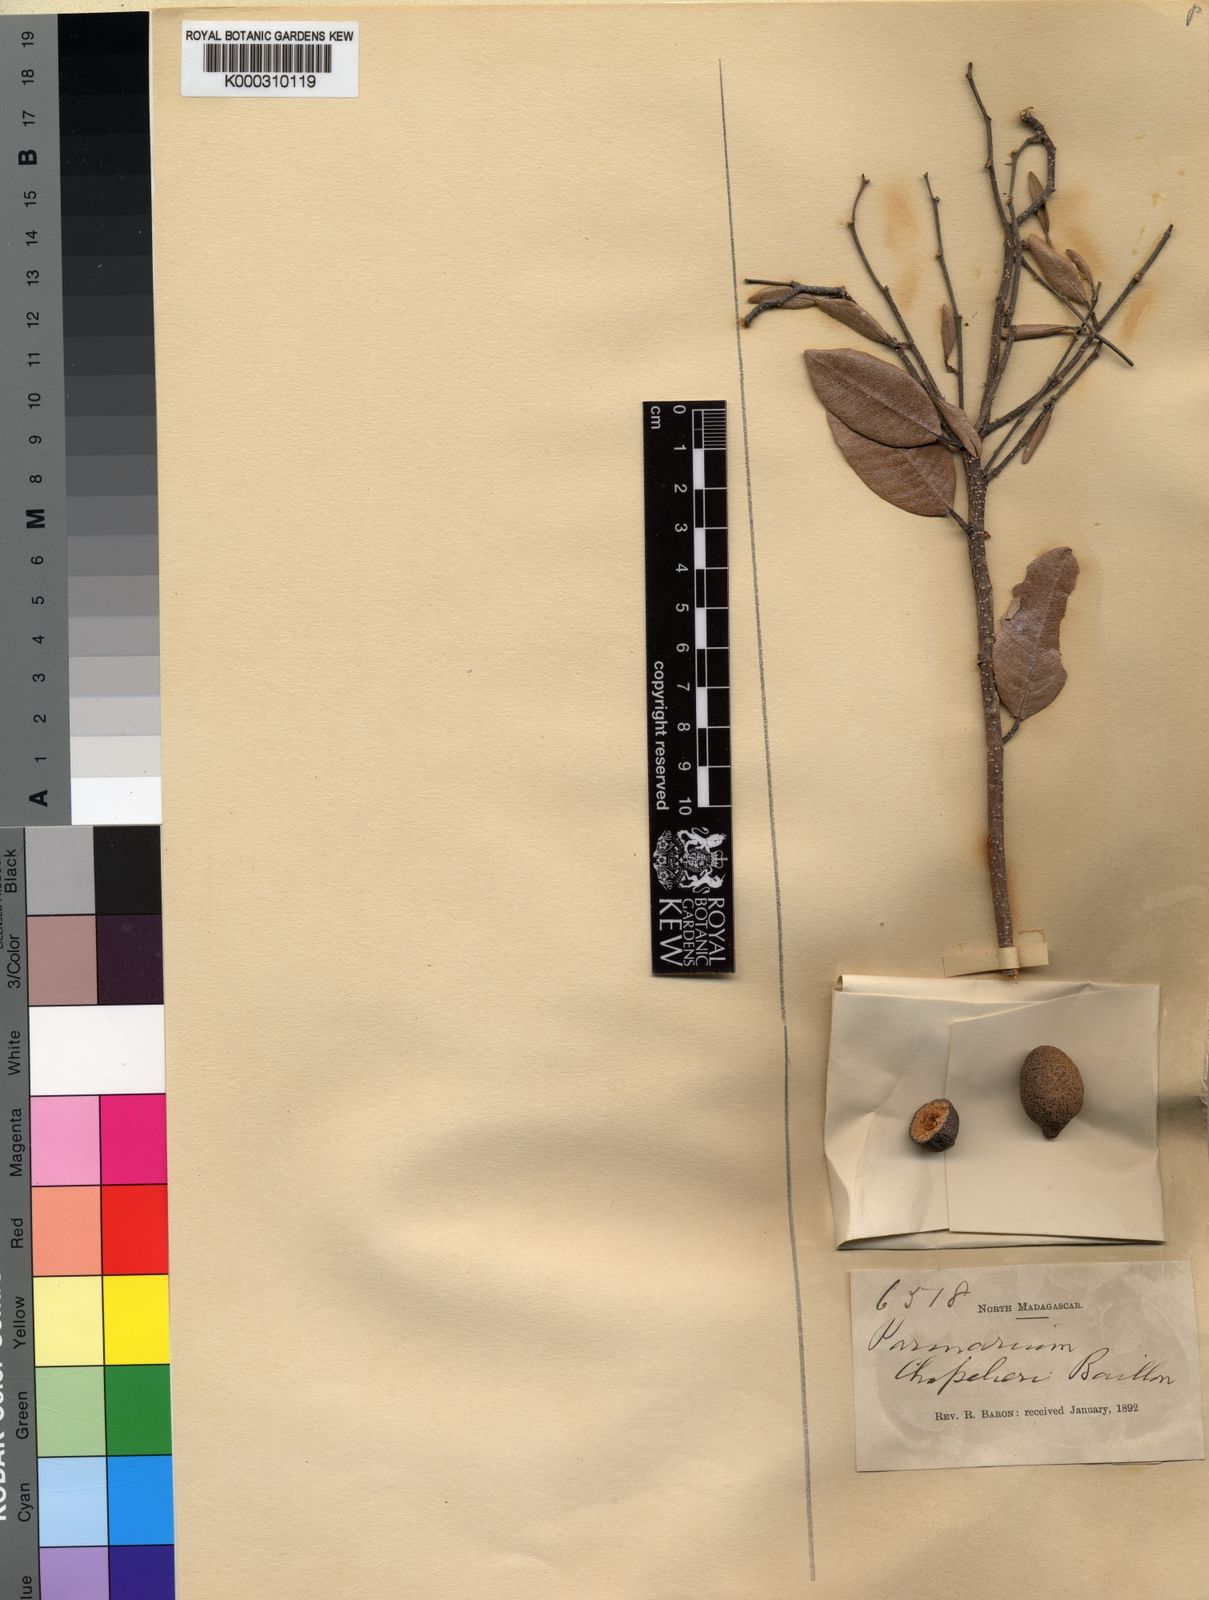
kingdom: Plantae
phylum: Tracheophyta
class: Magnoliopsida
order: Malpighiales
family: Chrysobalanaceae
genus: Parinari
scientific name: Parinari curatellifolia
